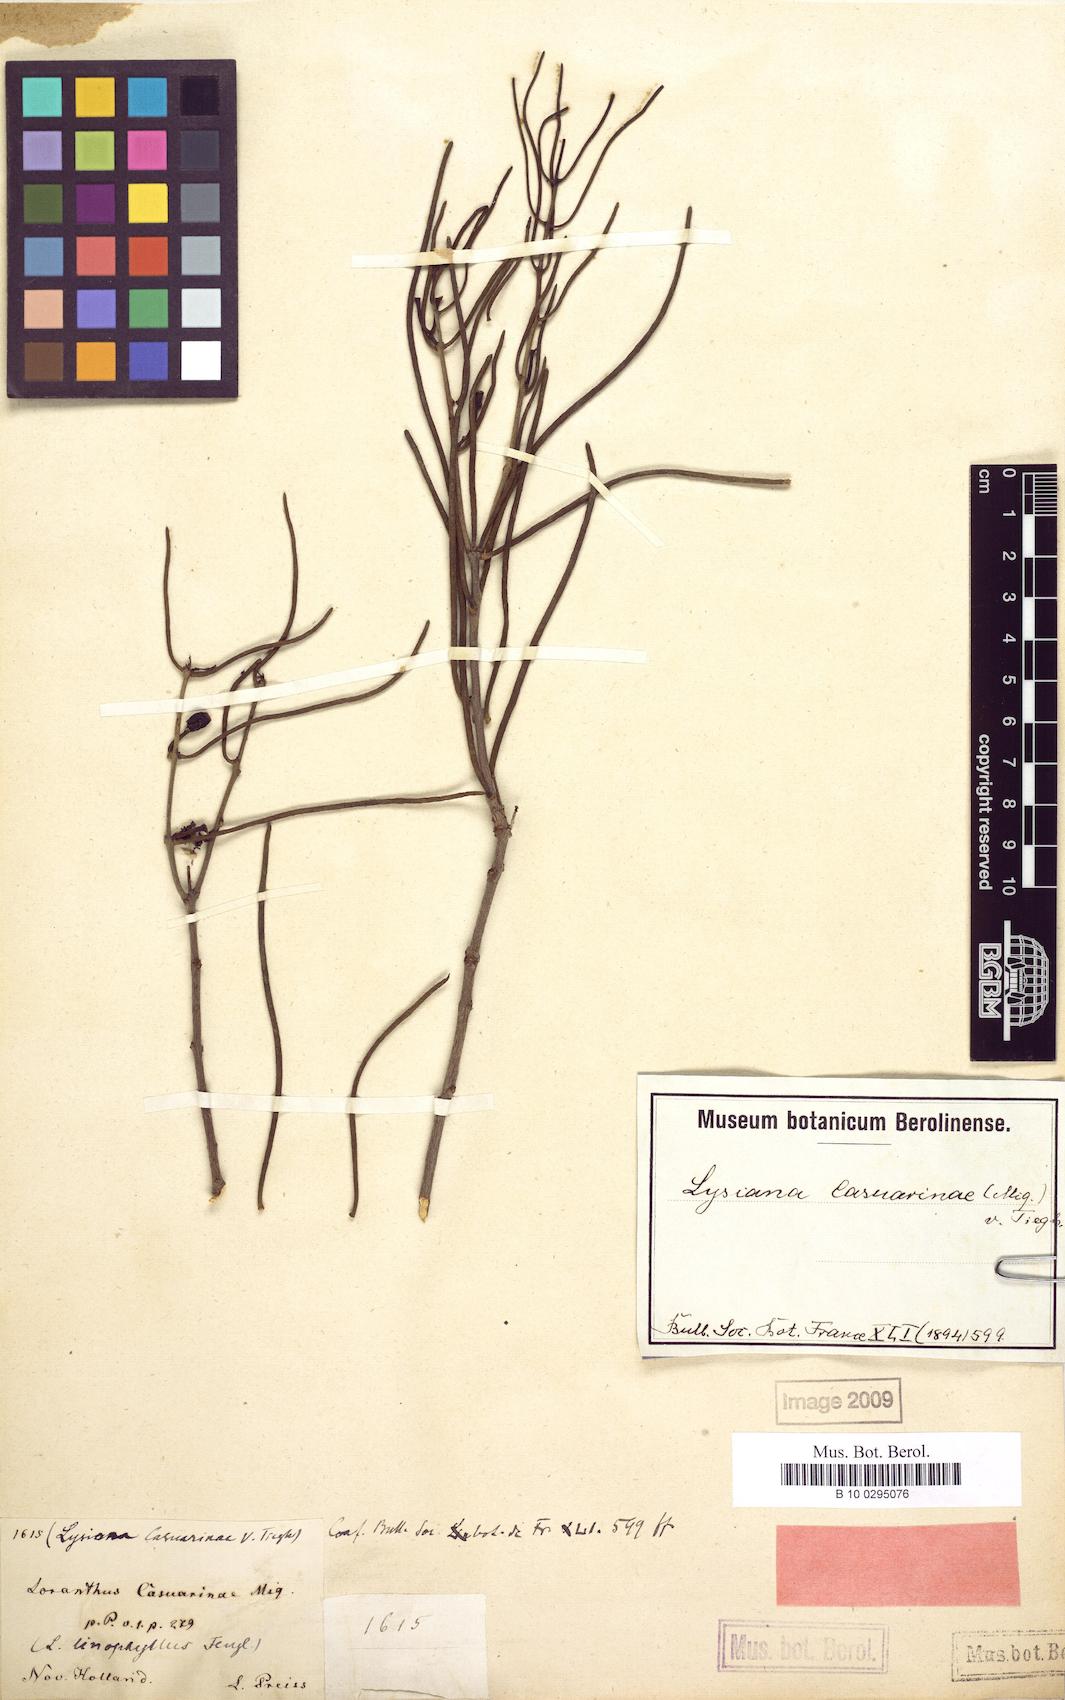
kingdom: Plantae
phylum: Tracheophyta
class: Magnoliopsida
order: Santalales
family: Loranthaceae
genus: Lysiana
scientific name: Lysiana casuarinae
